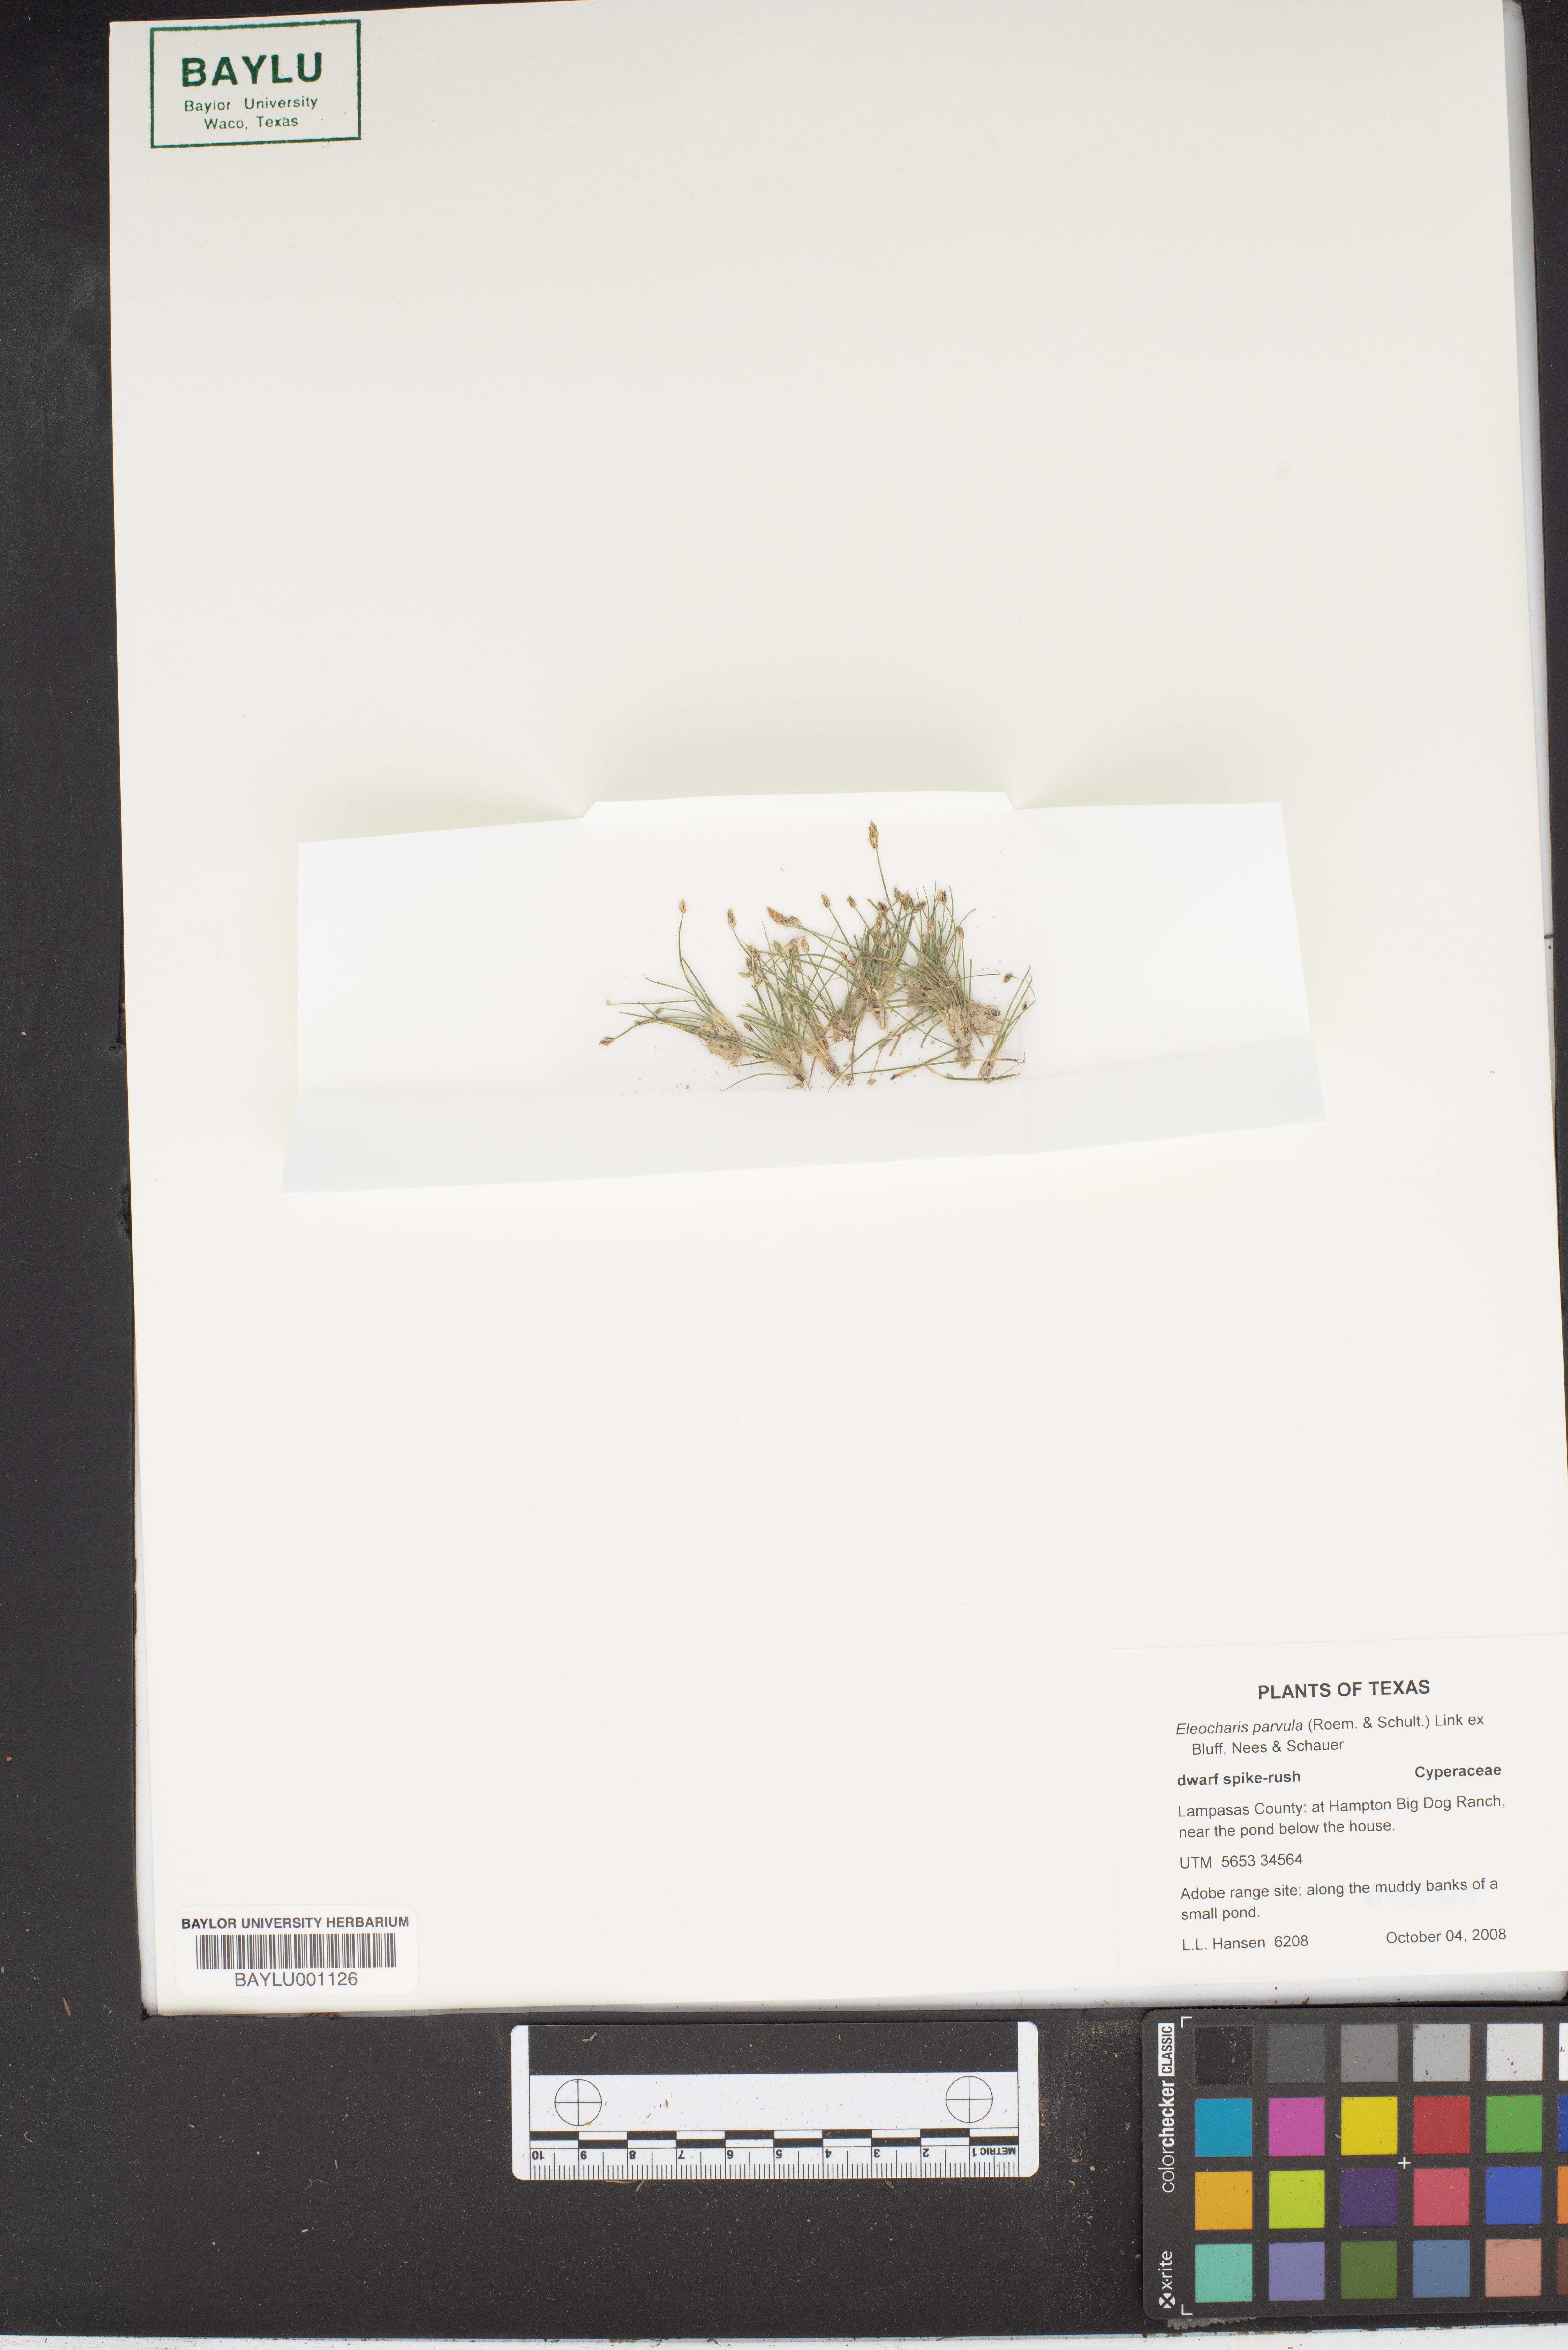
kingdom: Plantae
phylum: Tracheophyta
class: Liliopsida
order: Poales
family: Cyperaceae
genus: Eleocharis
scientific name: Eleocharis parvula
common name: Dwarf spike-rush
